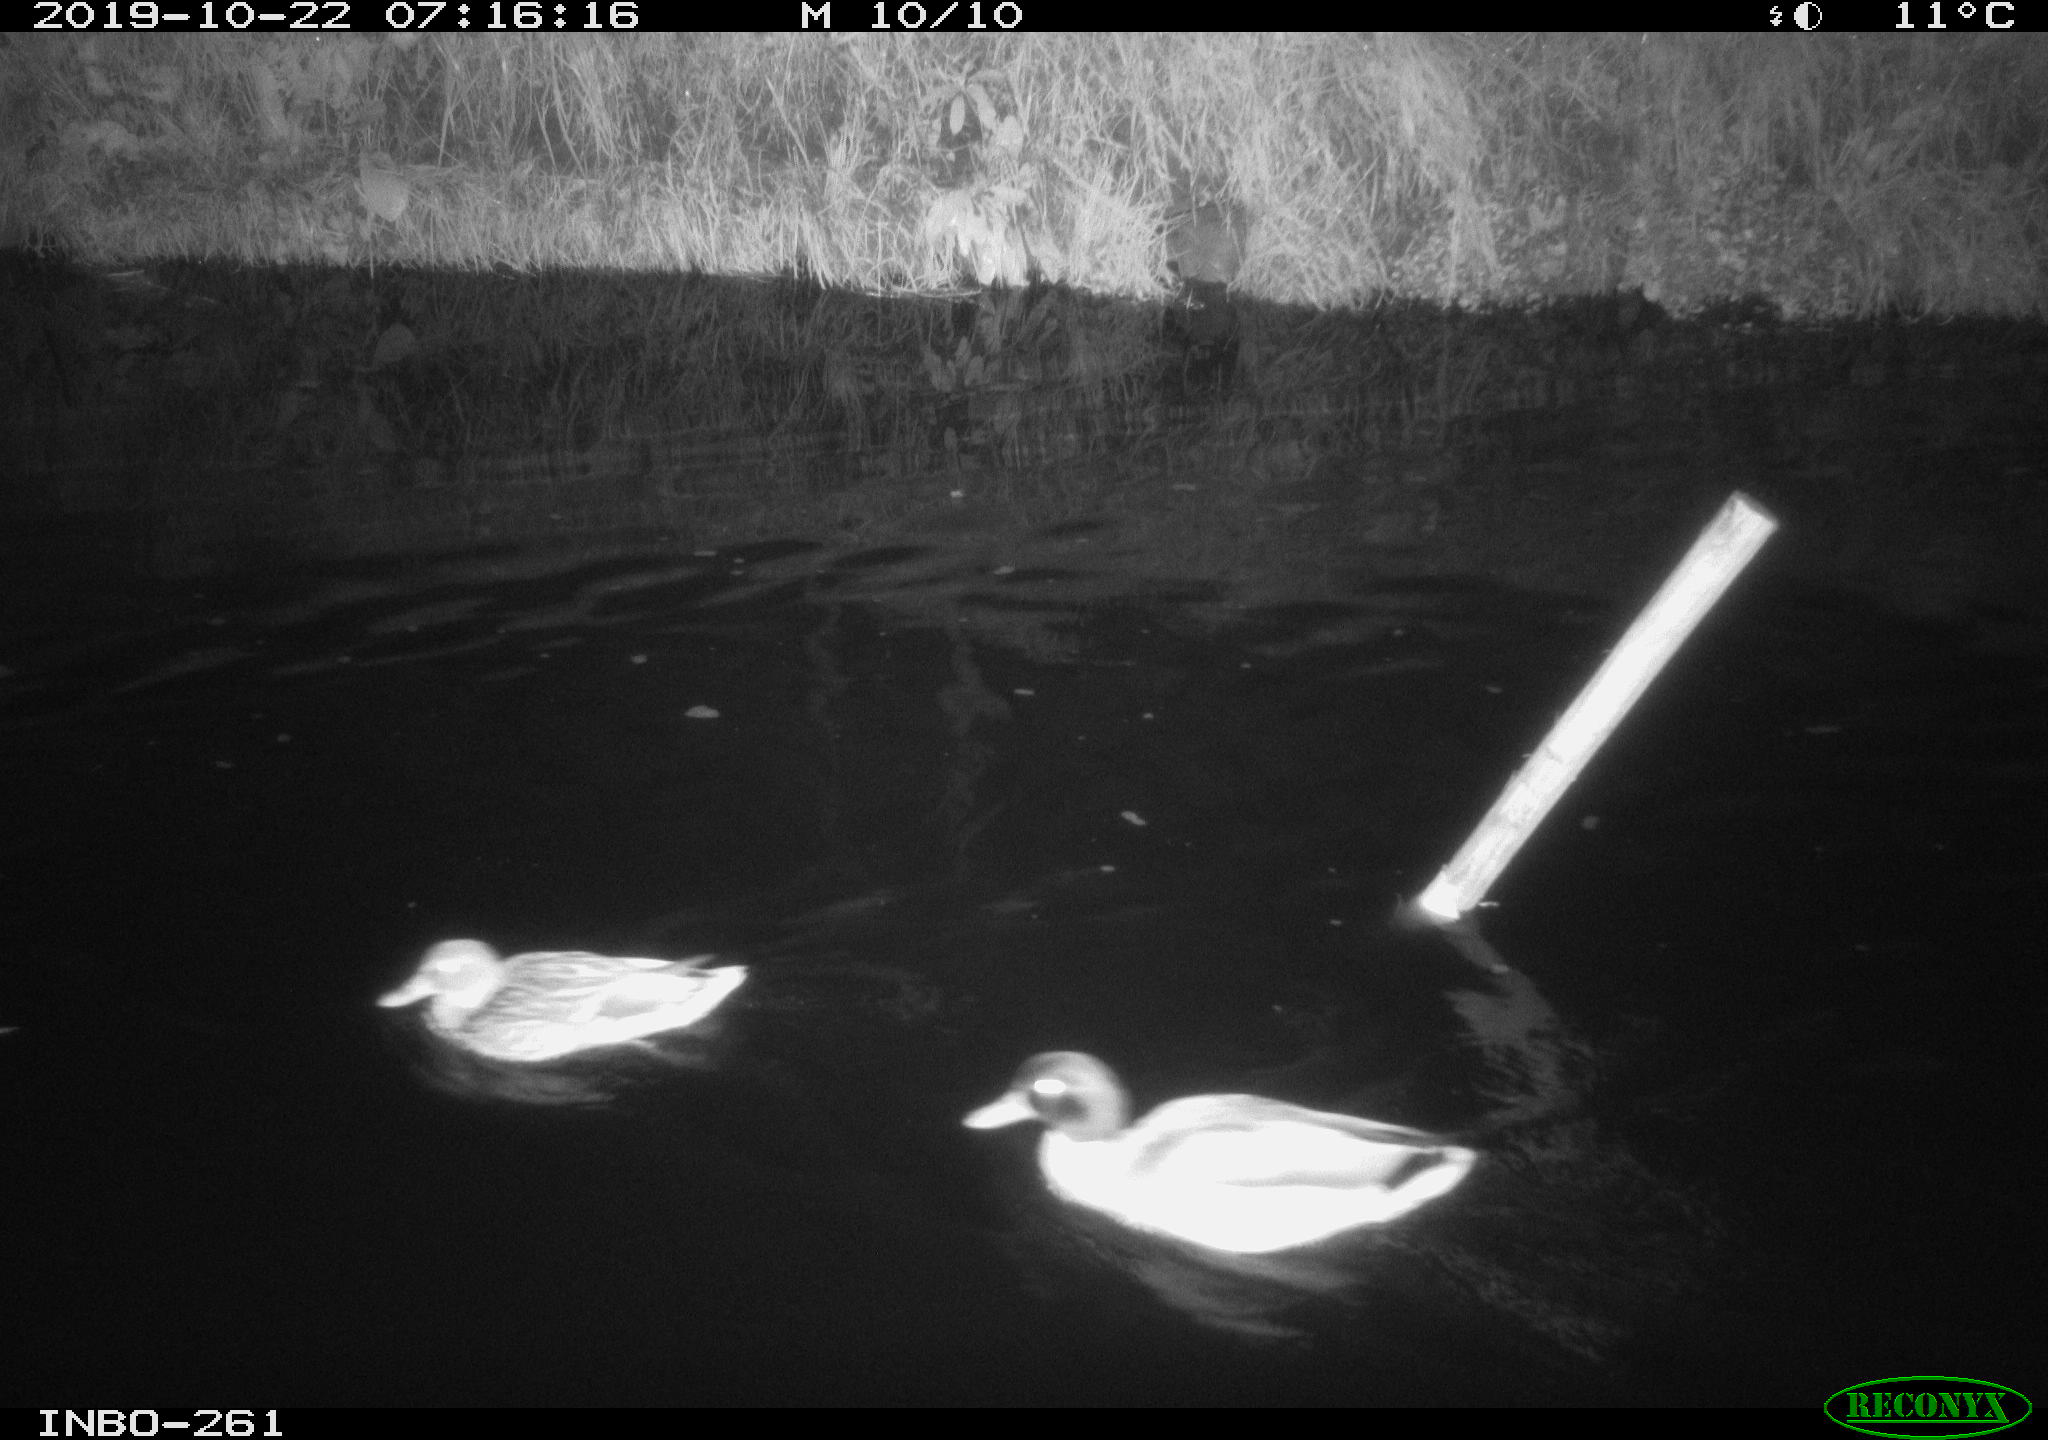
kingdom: Animalia
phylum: Chordata
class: Aves
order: Anseriformes
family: Anatidae
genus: Anas
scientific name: Anas platyrhynchos
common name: Mallard
